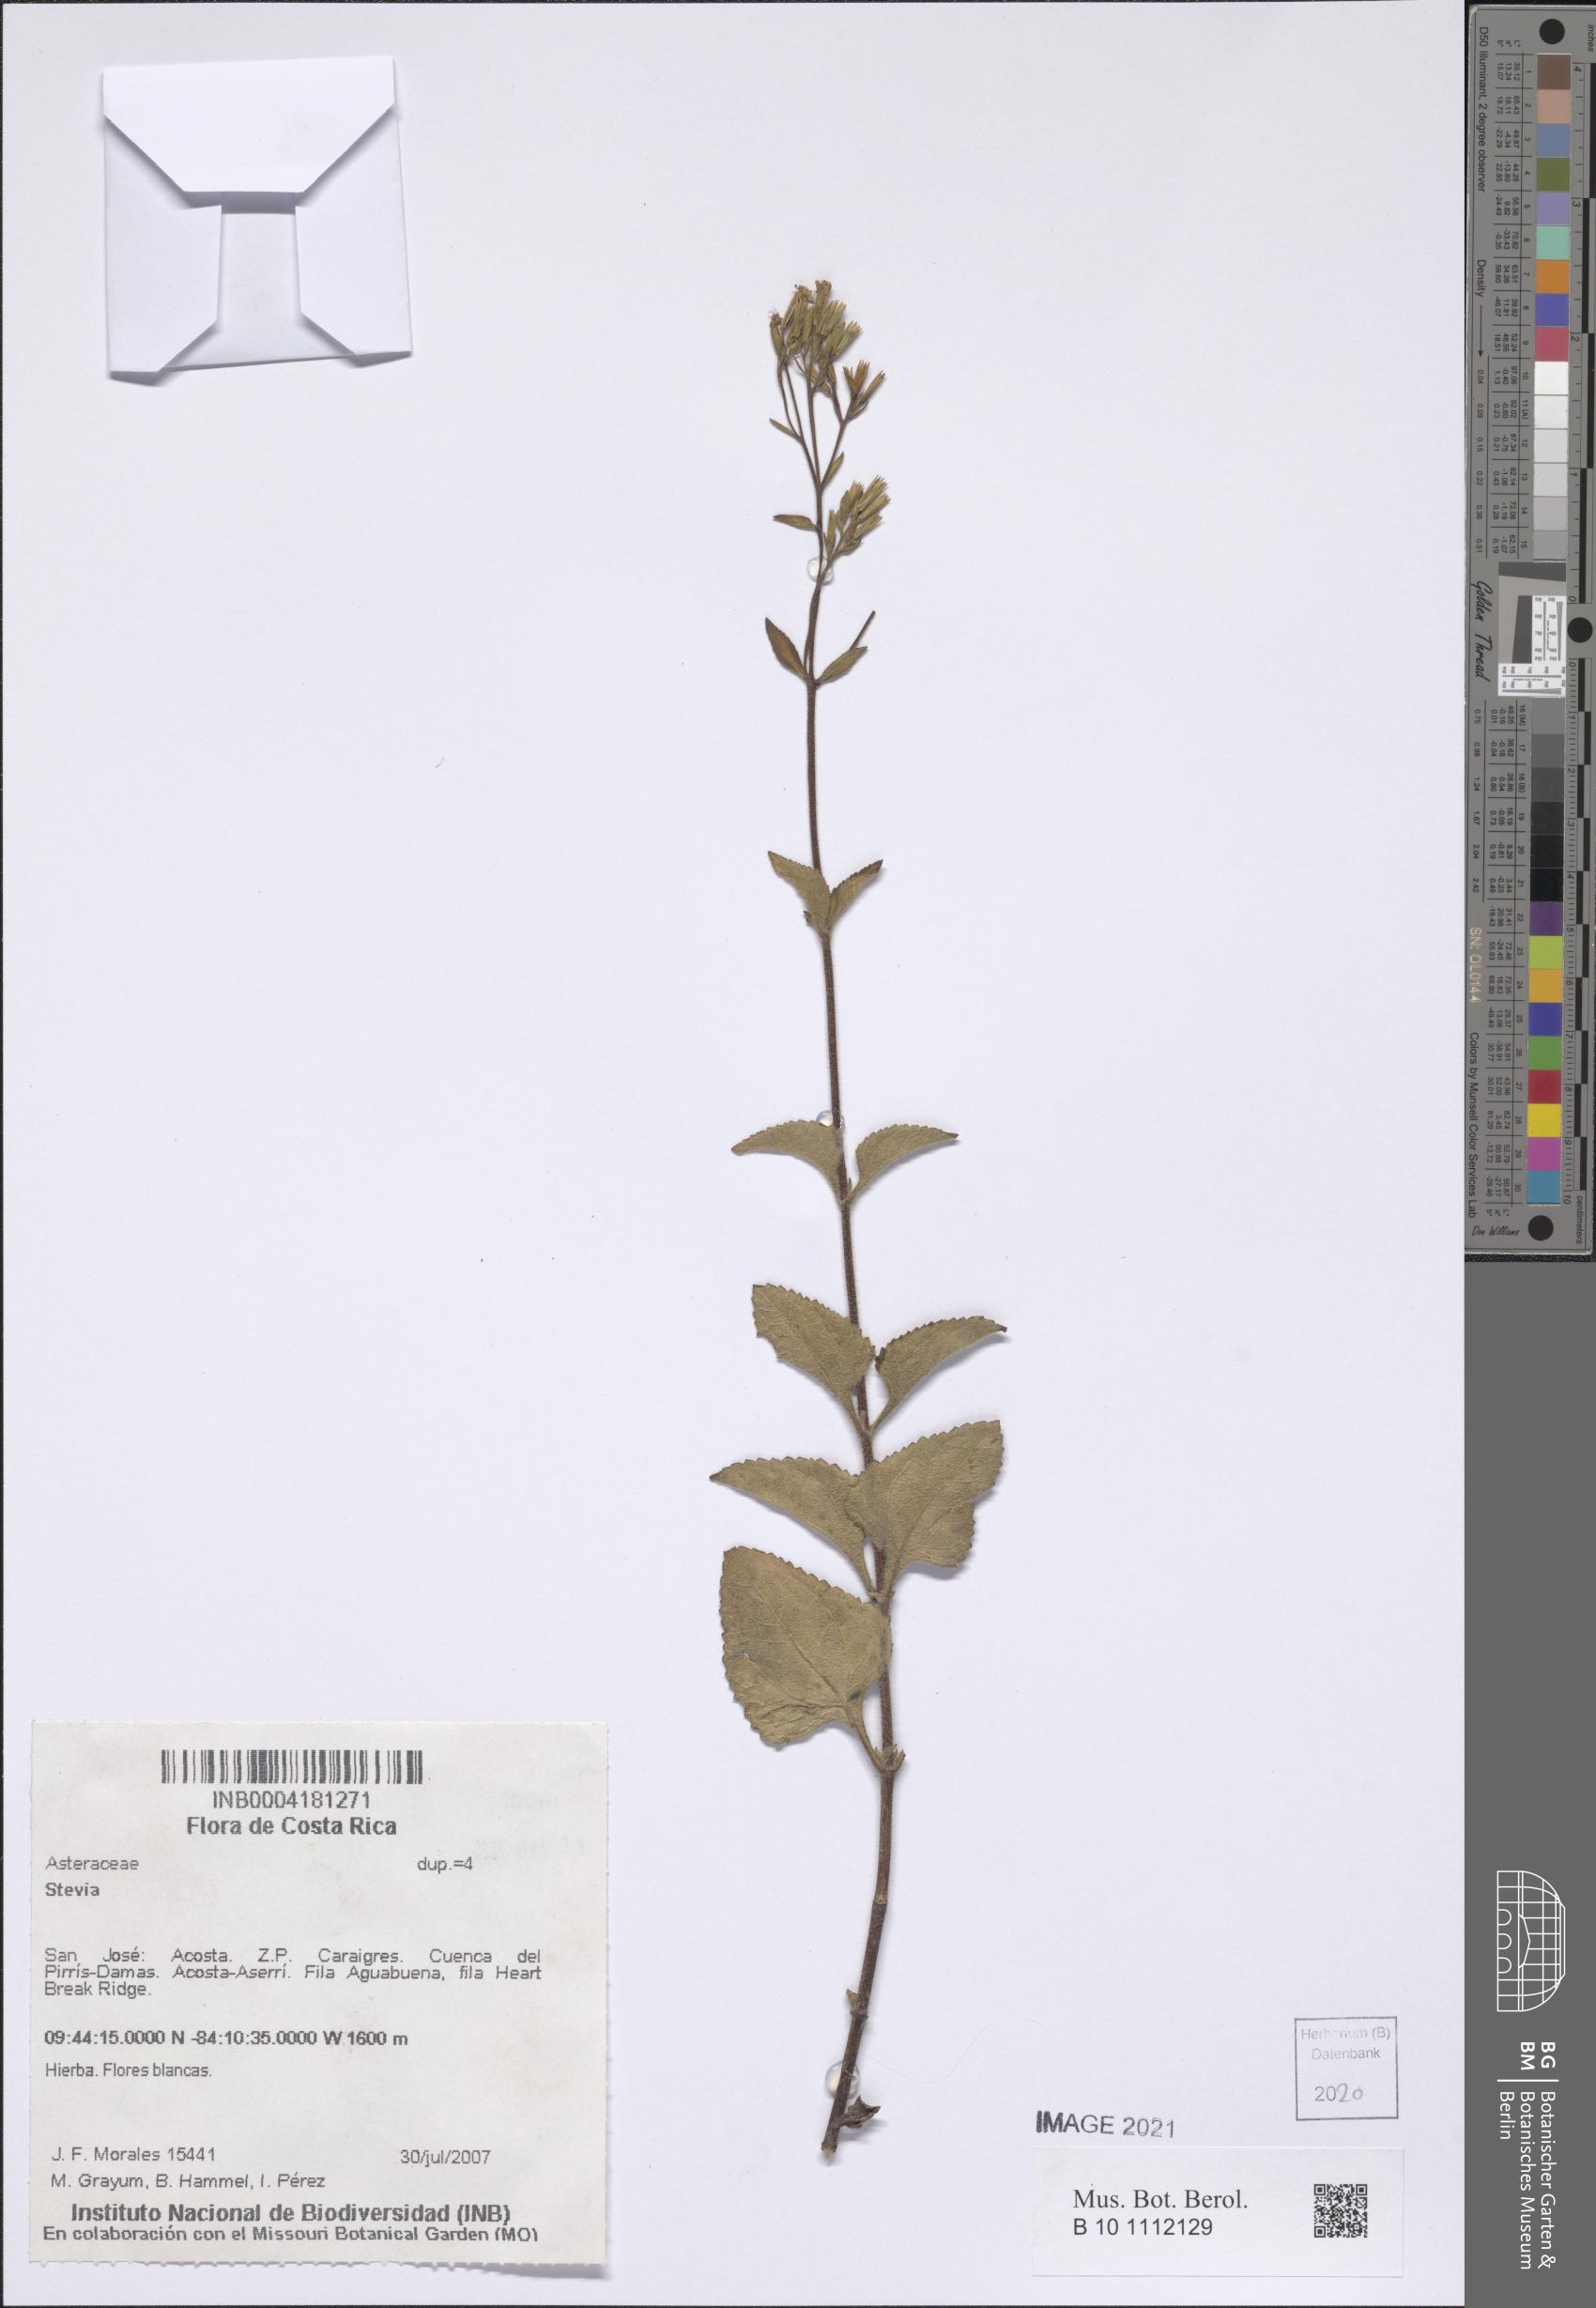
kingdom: Plantae
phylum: Tracheophyta
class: Magnoliopsida
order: Asterales
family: Asteraceae
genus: Stevia
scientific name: Stevia
